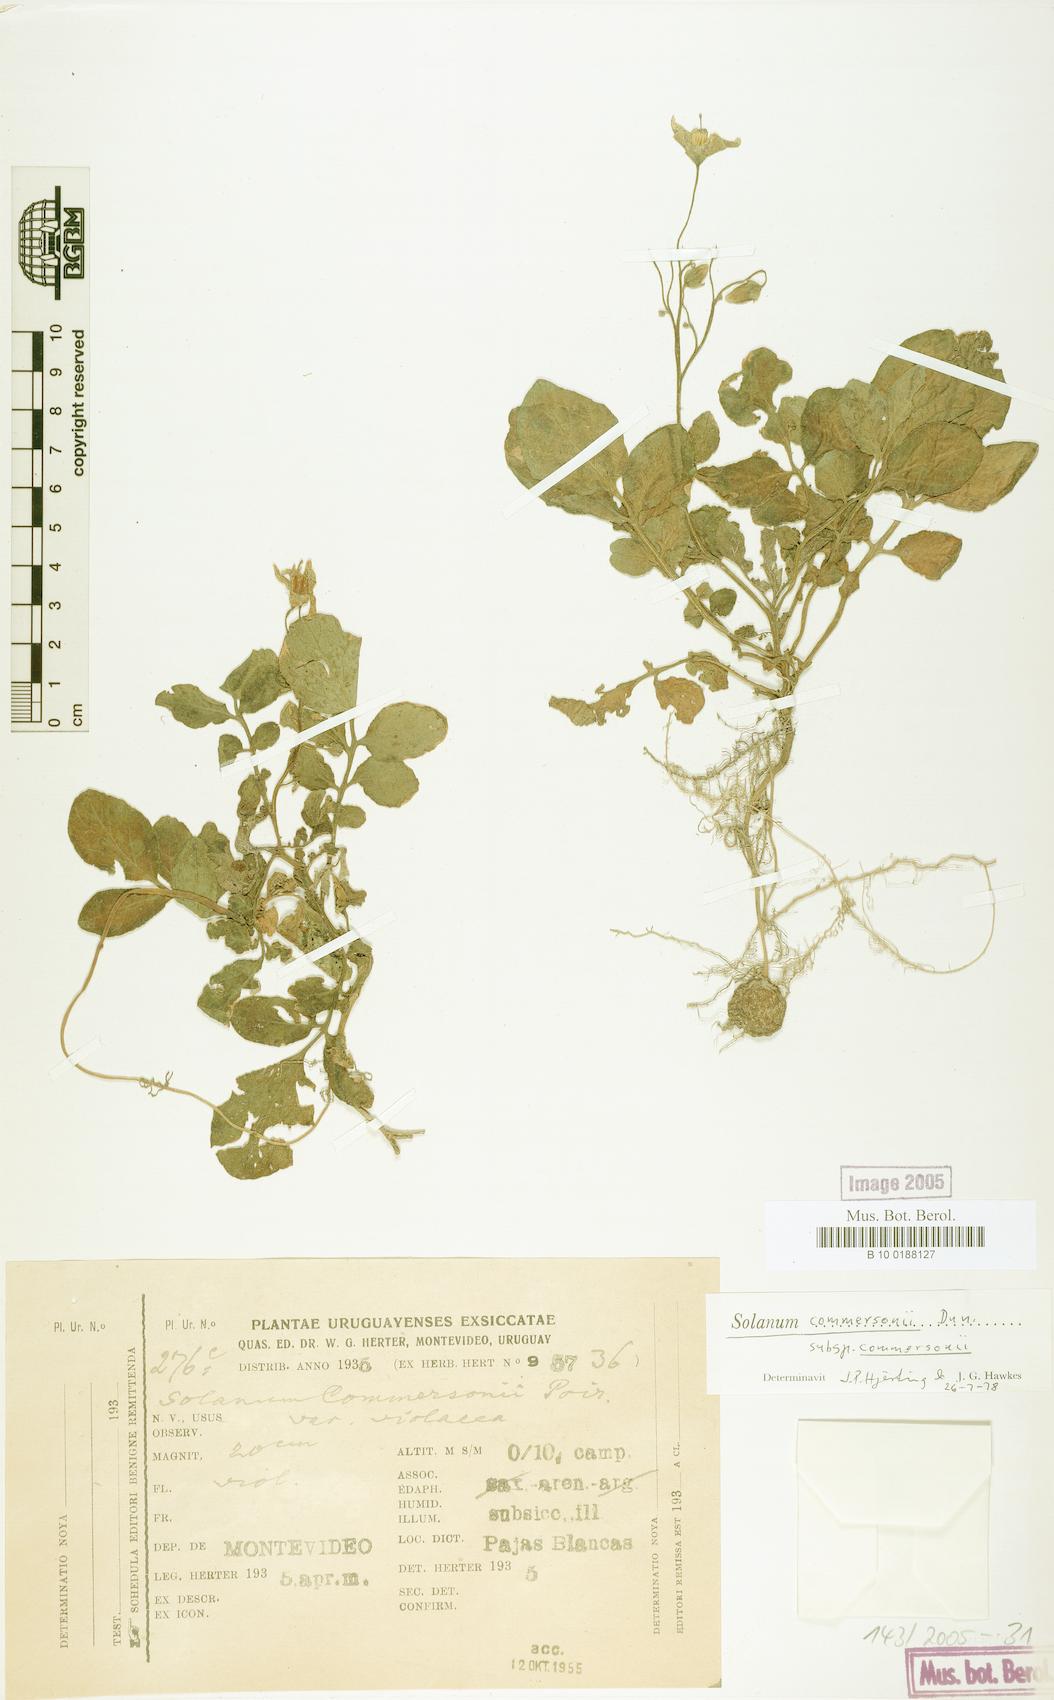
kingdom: Plantae
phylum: Tracheophyta
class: Magnoliopsida
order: Solanales
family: Solanaceae
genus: Solanum
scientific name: Solanum commersonii
